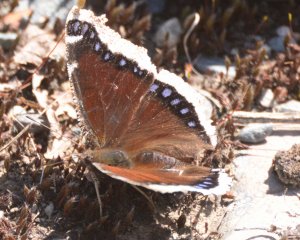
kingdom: Animalia
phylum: Arthropoda
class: Insecta
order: Lepidoptera
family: Nymphalidae
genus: Nymphalis
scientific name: Nymphalis antiopa
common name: Mourning Cloak
